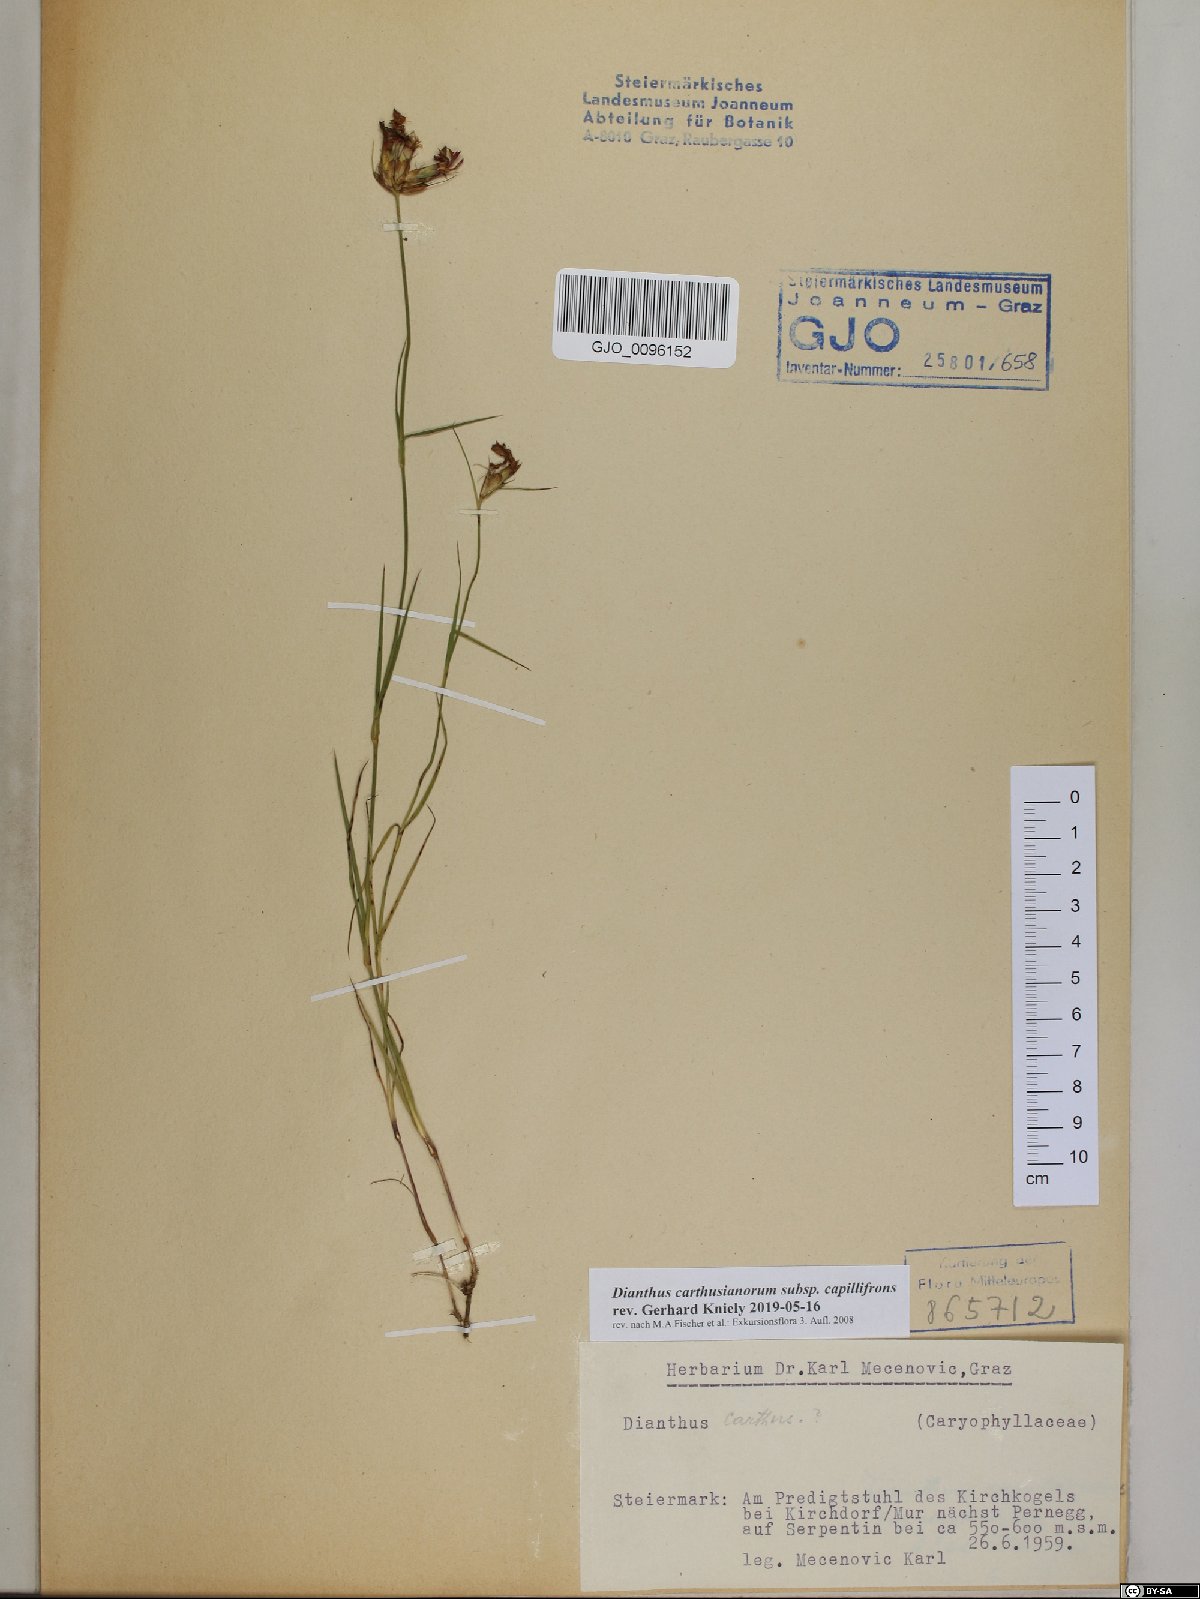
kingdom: Plantae
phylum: Tracheophyta
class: Magnoliopsida
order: Caryophyllales
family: Caryophyllaceae
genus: Dianthus
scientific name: Dianthus carthusianorum
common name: Carthusian pink
